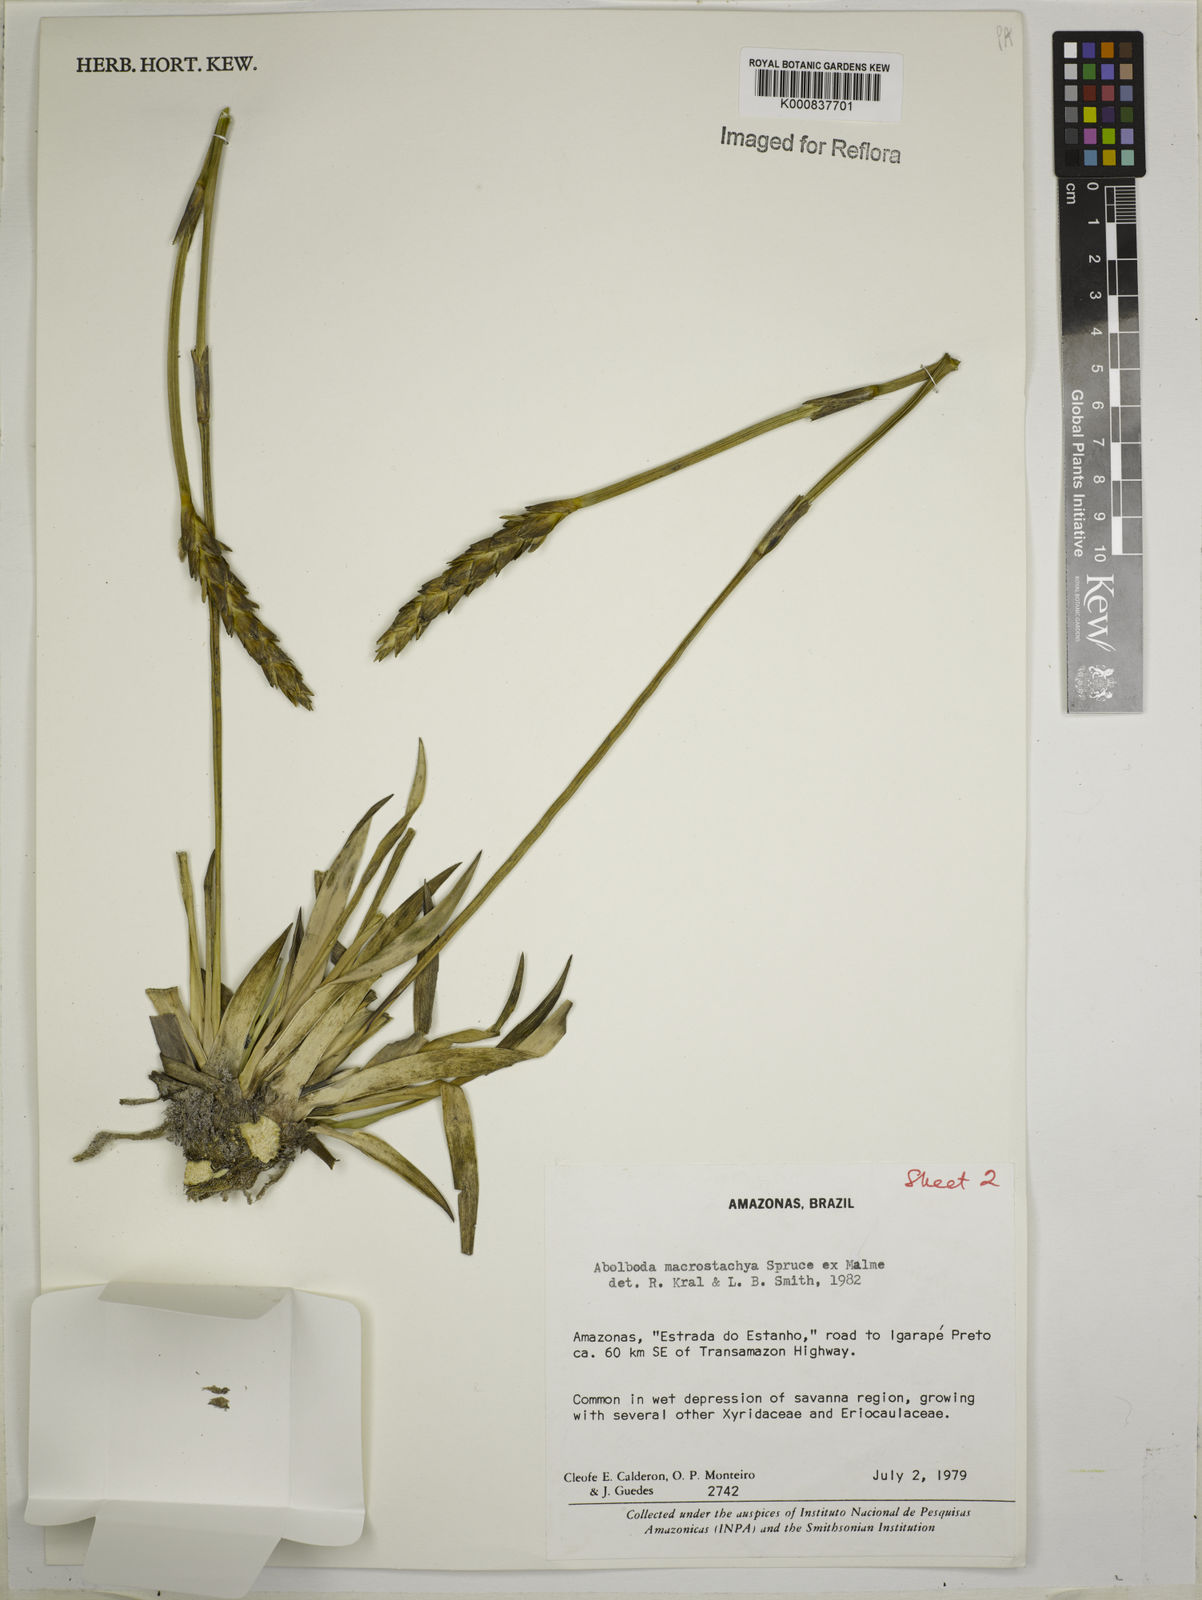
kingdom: Plantae
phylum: Tracheophyta
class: Liliopsida
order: Poales
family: Xyridaceae
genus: Abolboda
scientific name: Abolboda macrostachya
